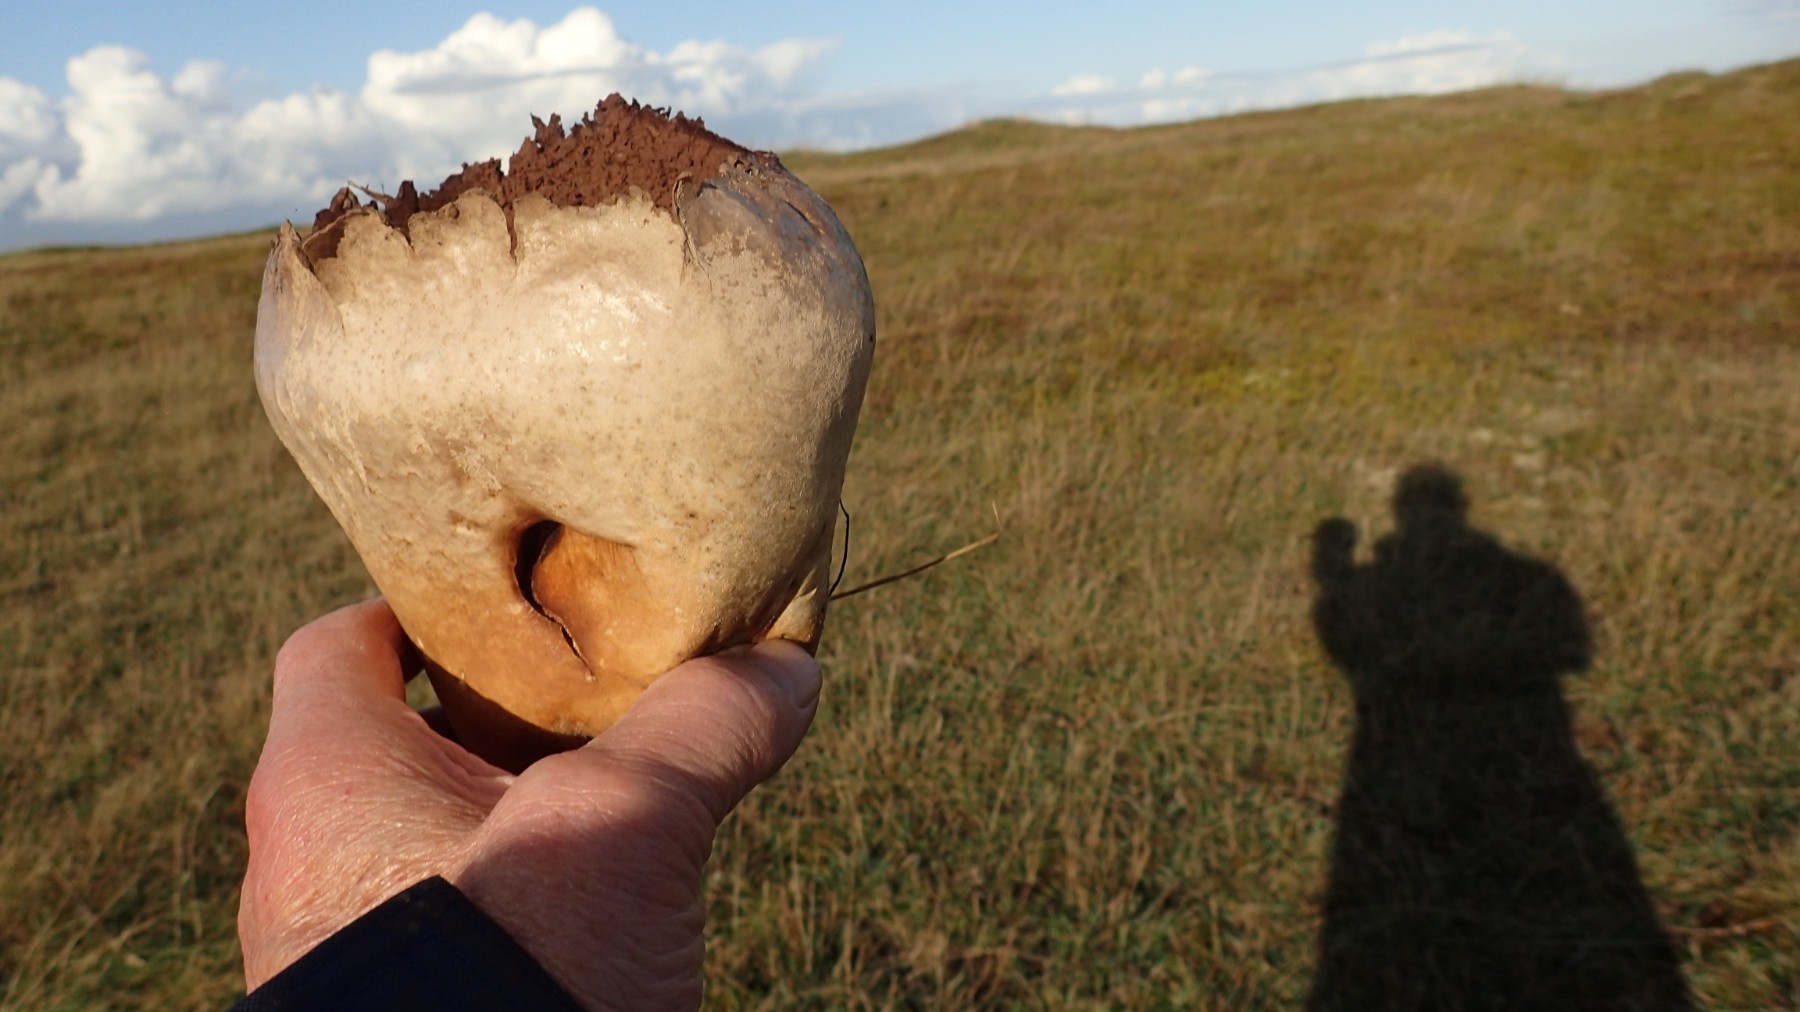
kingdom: Fungi
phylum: Basidiomycota
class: Agaricomycetes
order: Agaricales
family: Lycoperdaceae
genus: Bovistella
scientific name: Bovistella utriformis
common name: skællet støvbold
